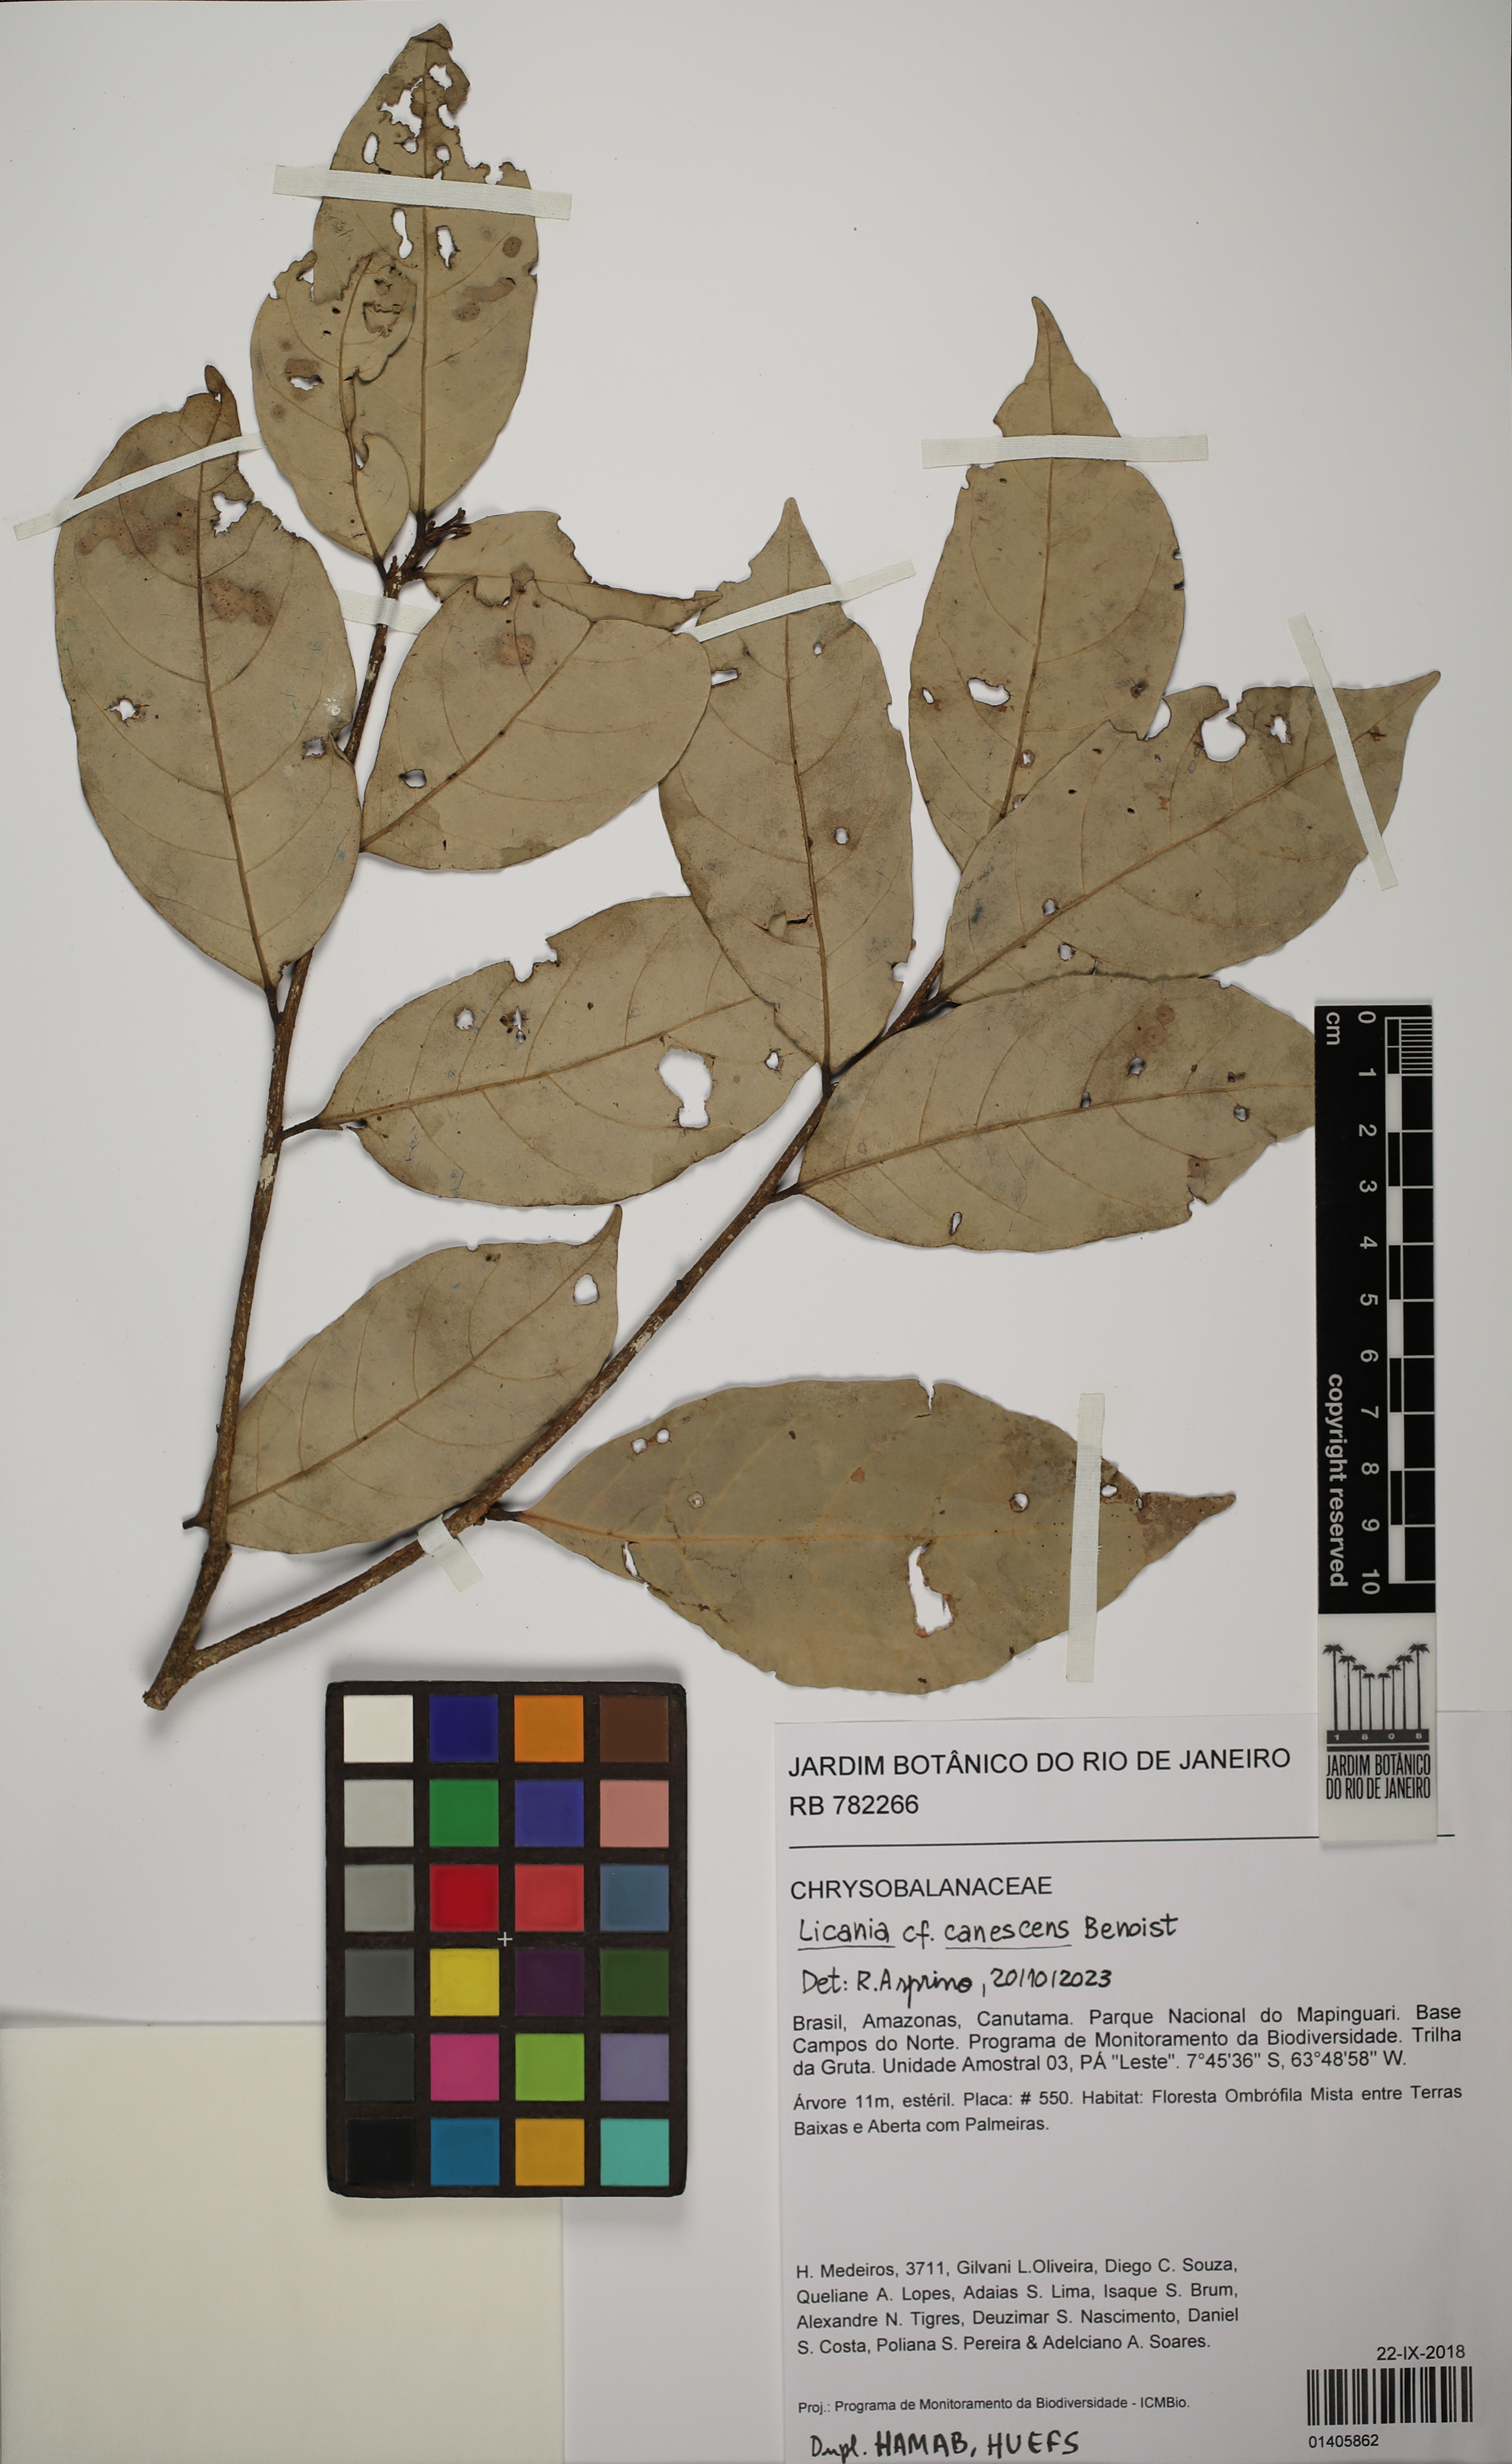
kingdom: Plantae
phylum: Tracheophyta
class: Magnoliopsida
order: Malpighiales
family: Chrysobalanaceae
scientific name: Chrysobalanaceae
